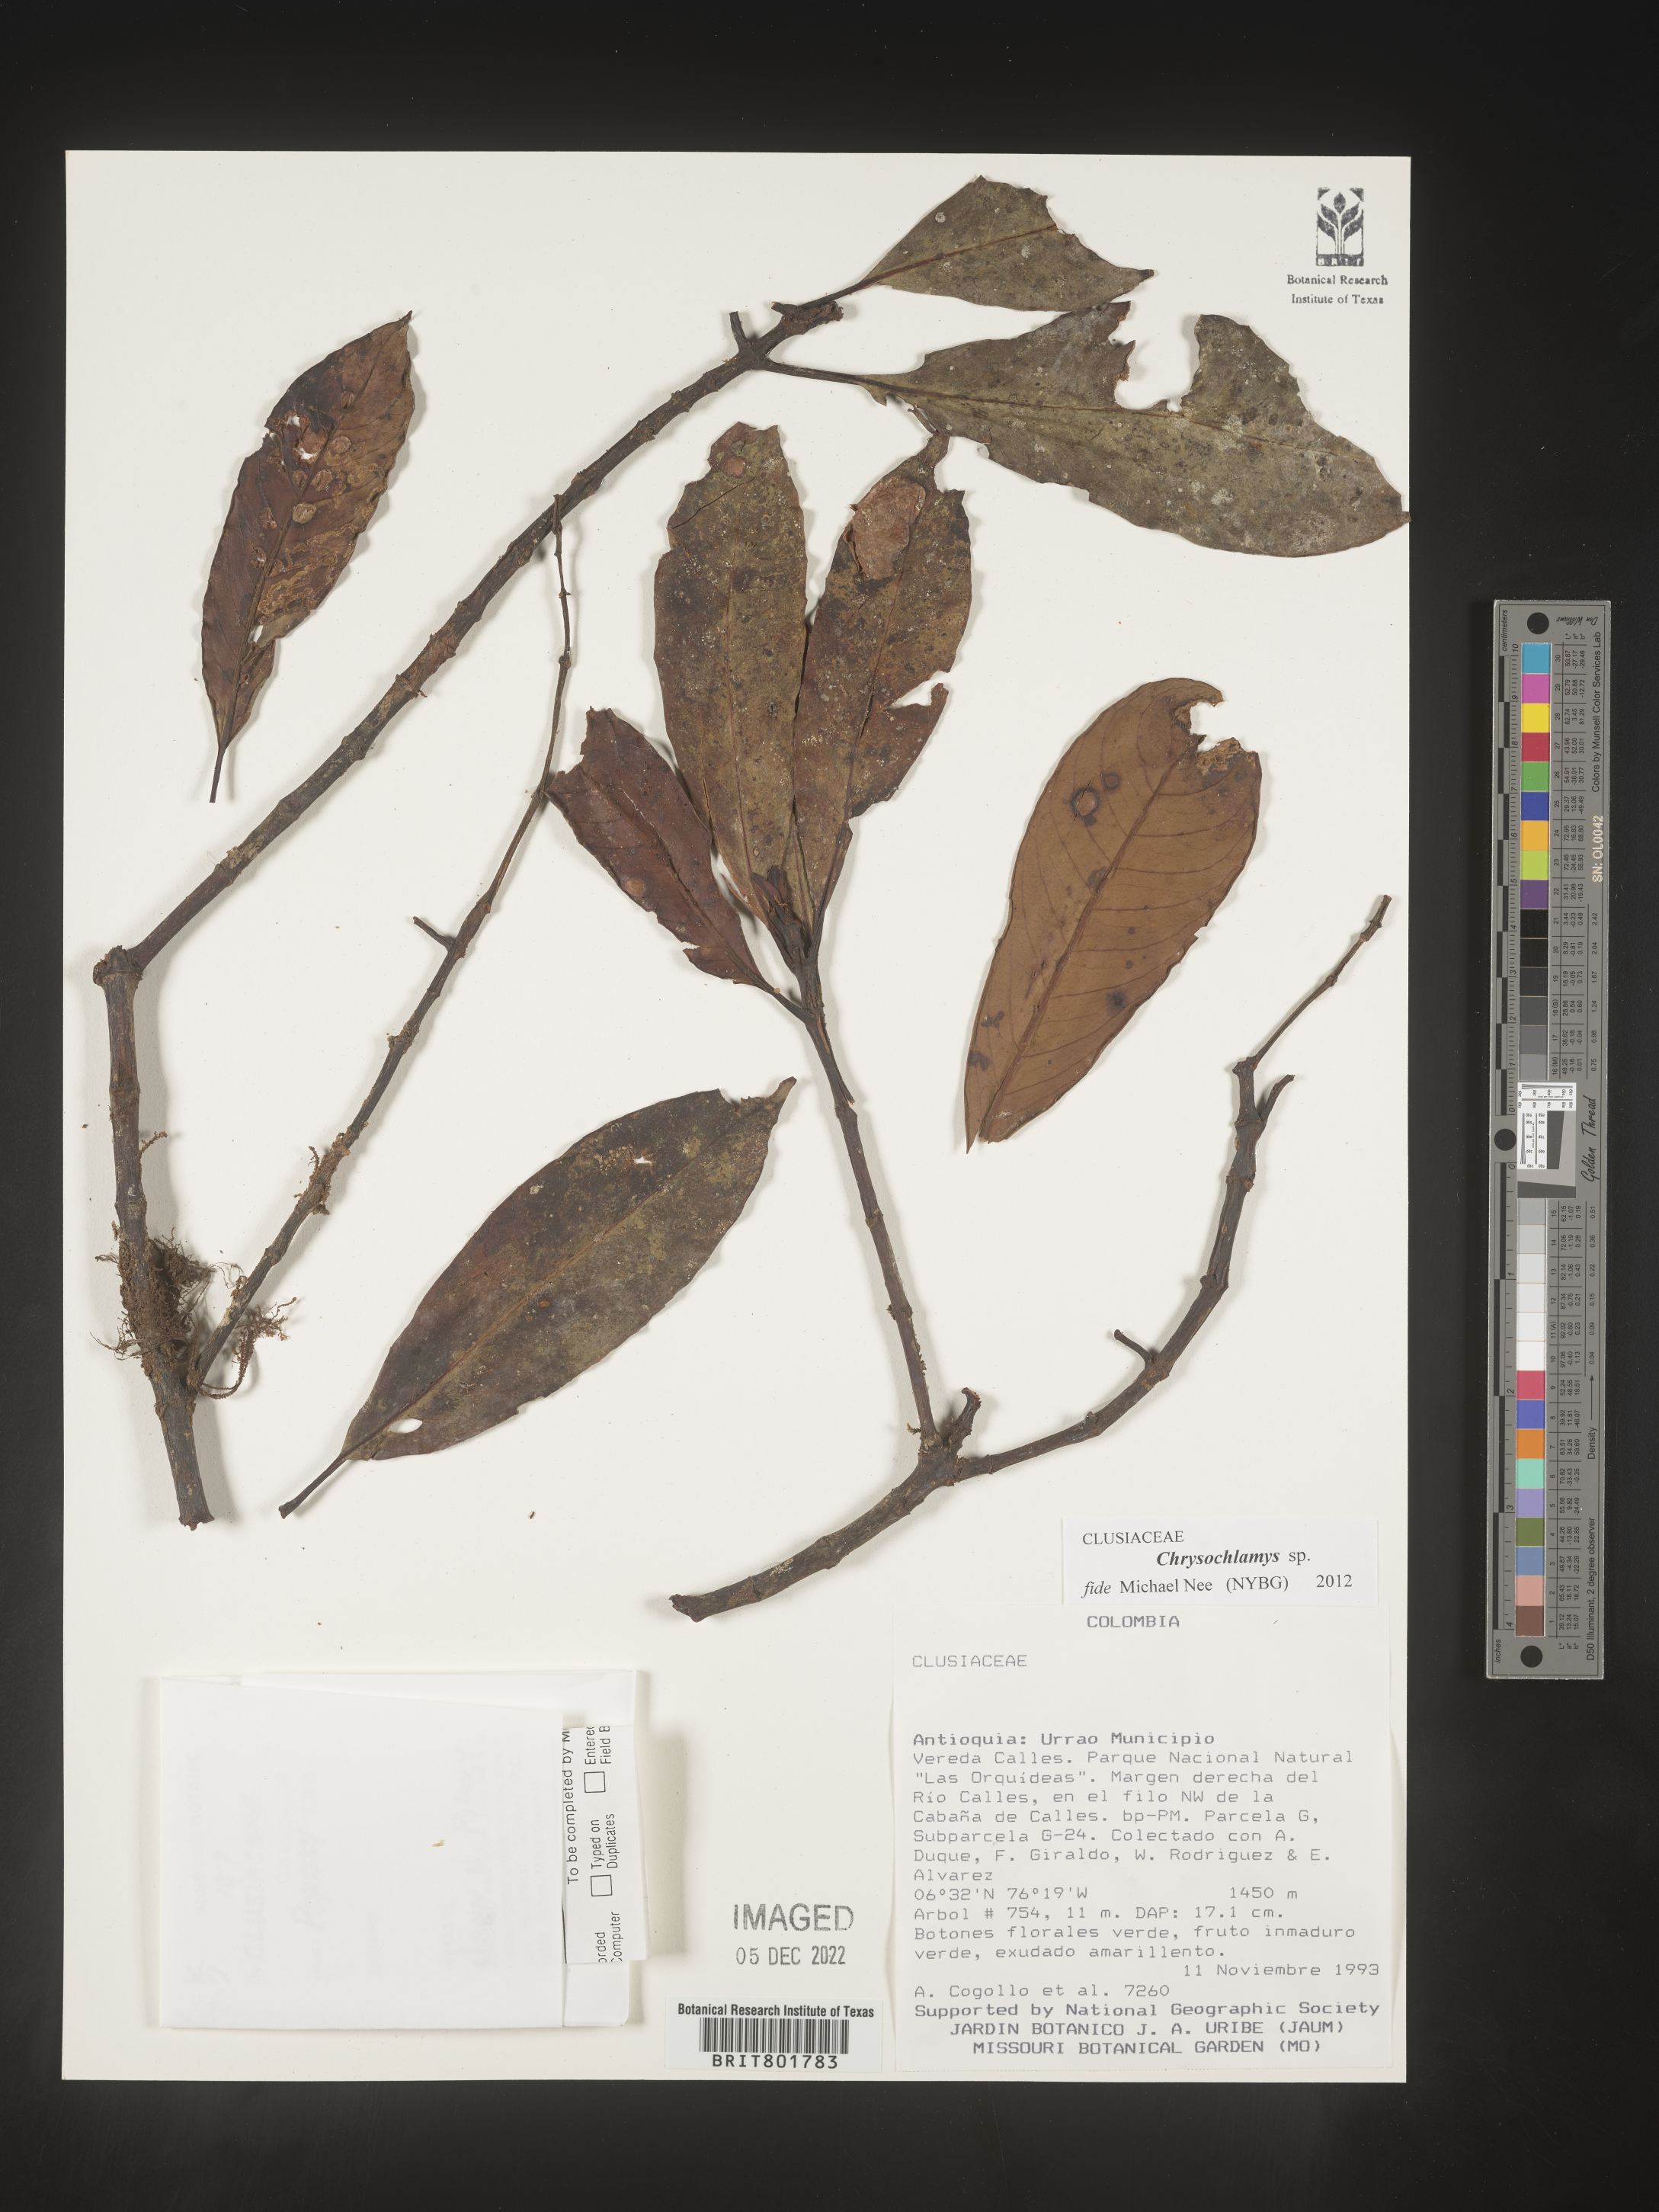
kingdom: Plantae
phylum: Tracheophyta
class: Magnoliopsida
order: Malpighiales
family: Clusiaceae
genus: Chrysochlamys
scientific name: Chrysochlamys
